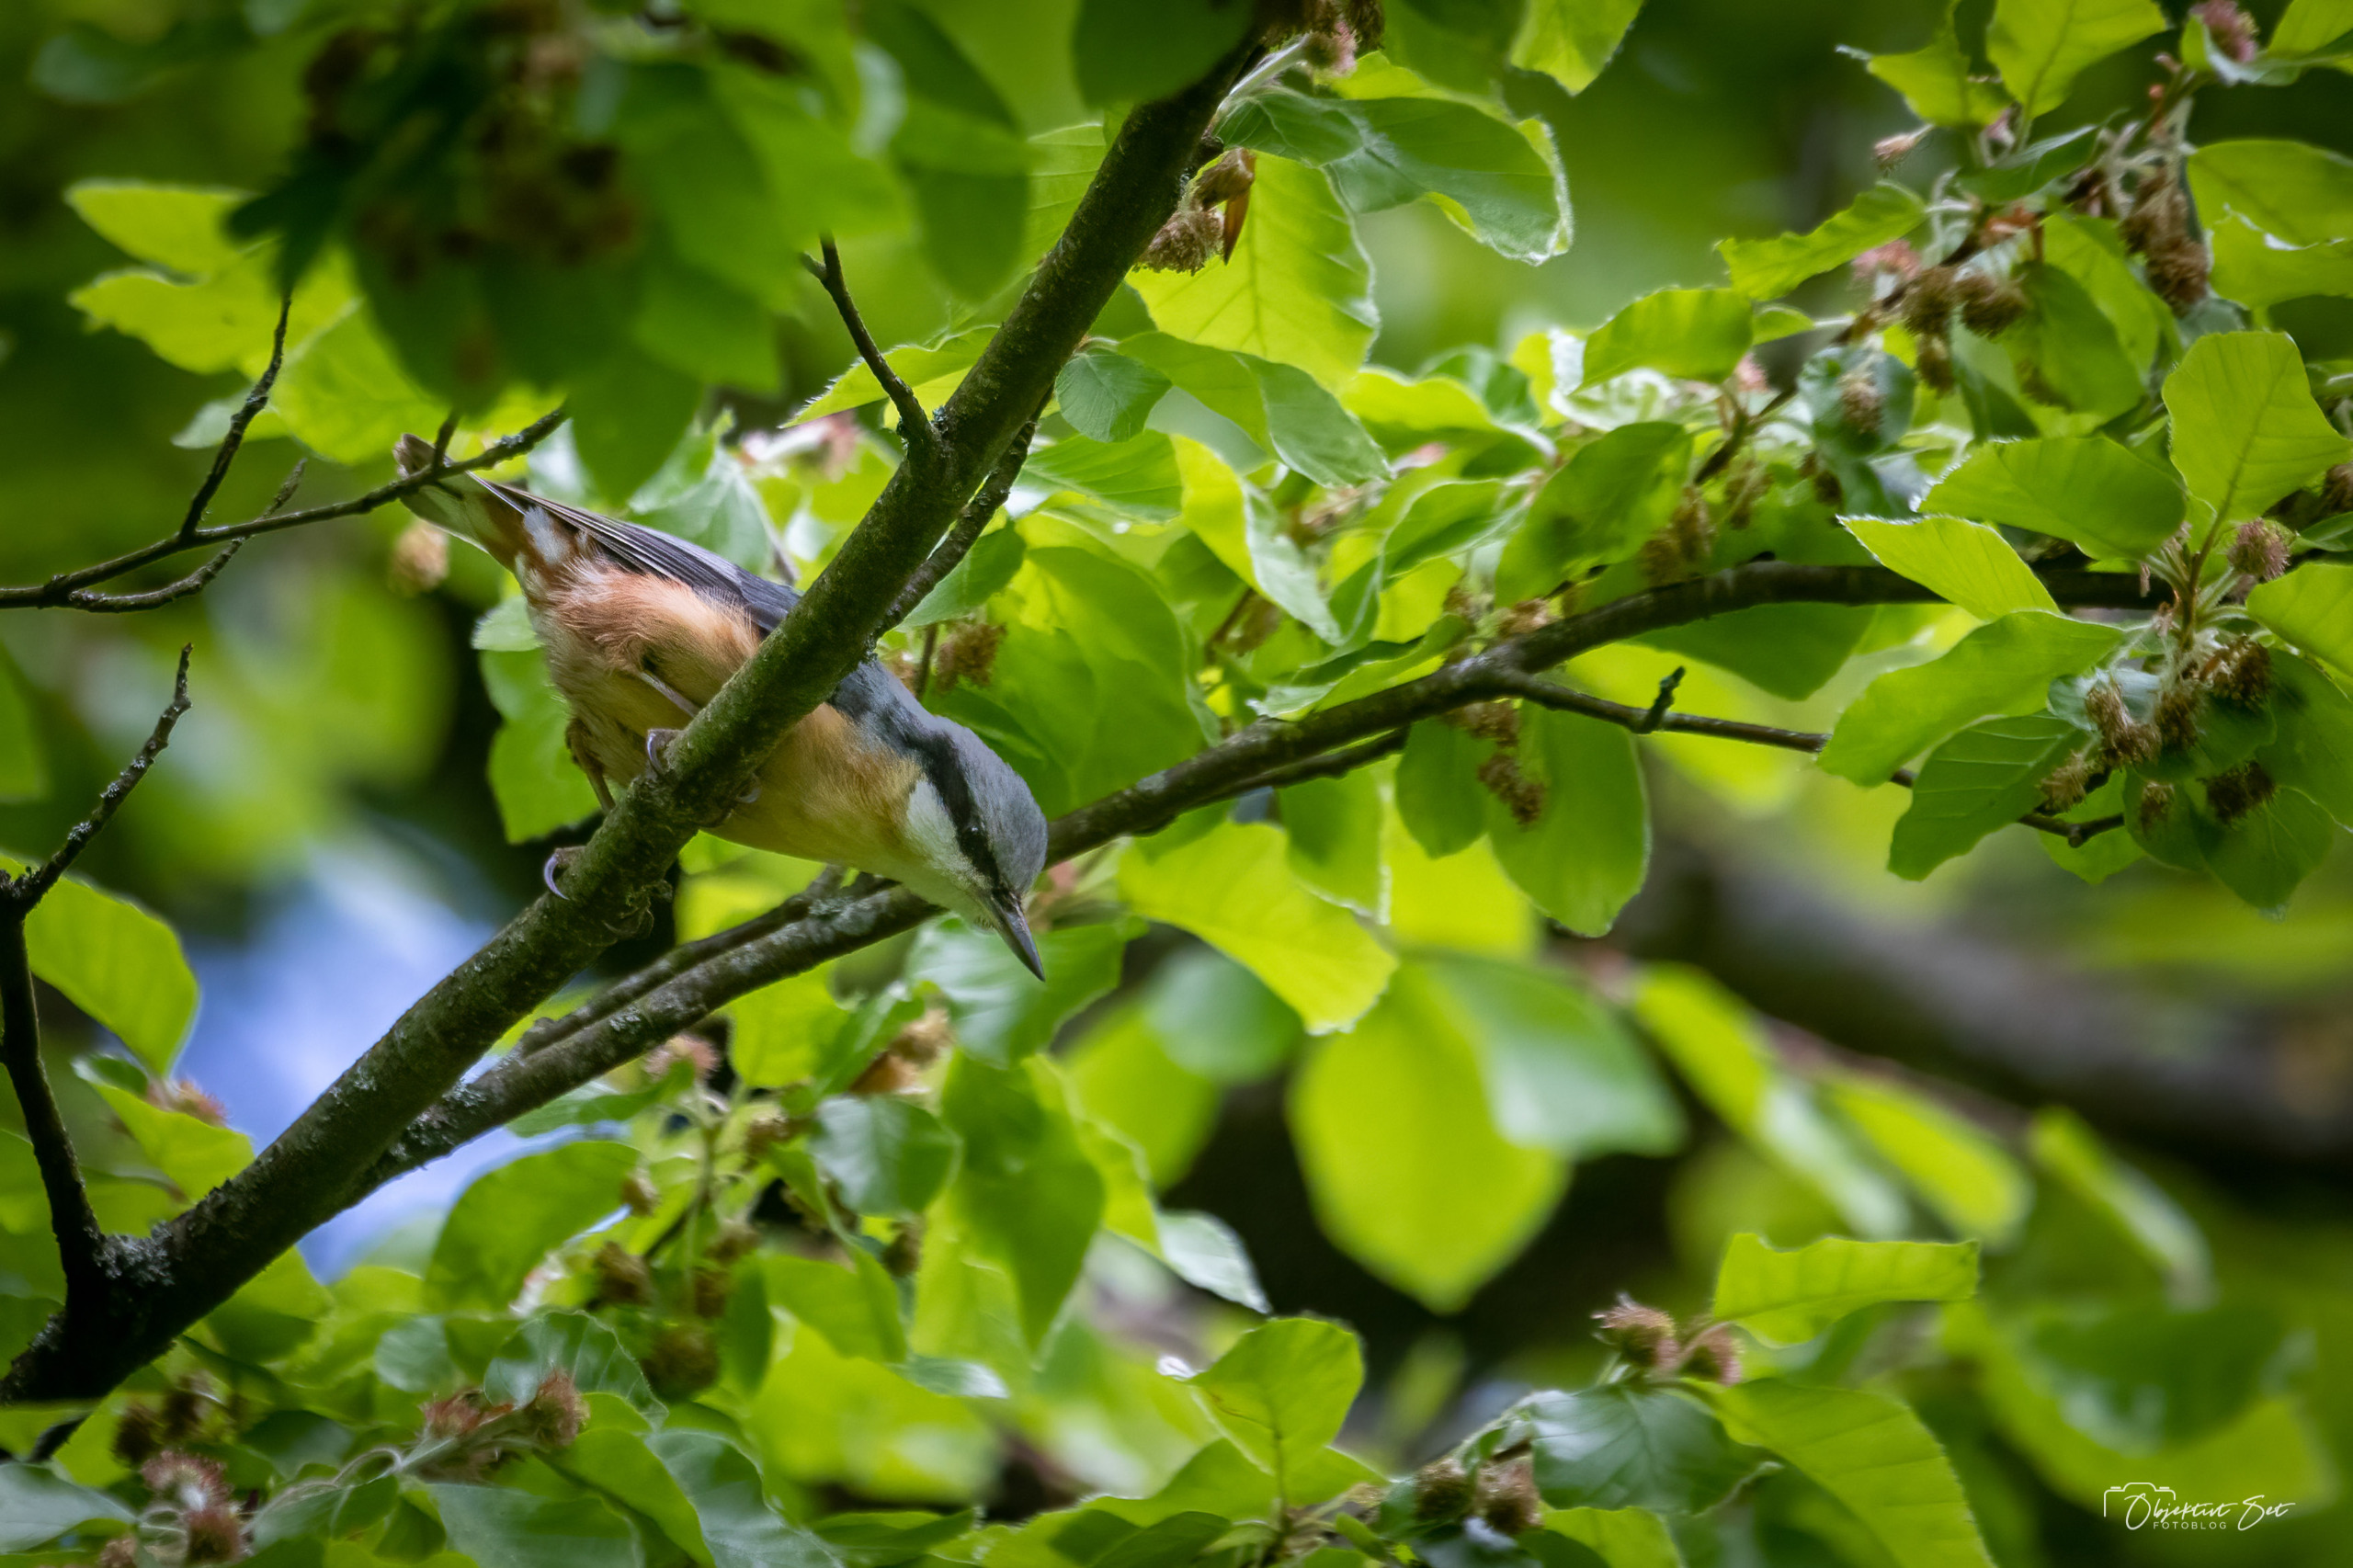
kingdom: Animalia
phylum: Chordata
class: Aves
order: Passeriformes
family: Sittidae
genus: Sitta
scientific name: Sitta europaea
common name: Spætmejse
